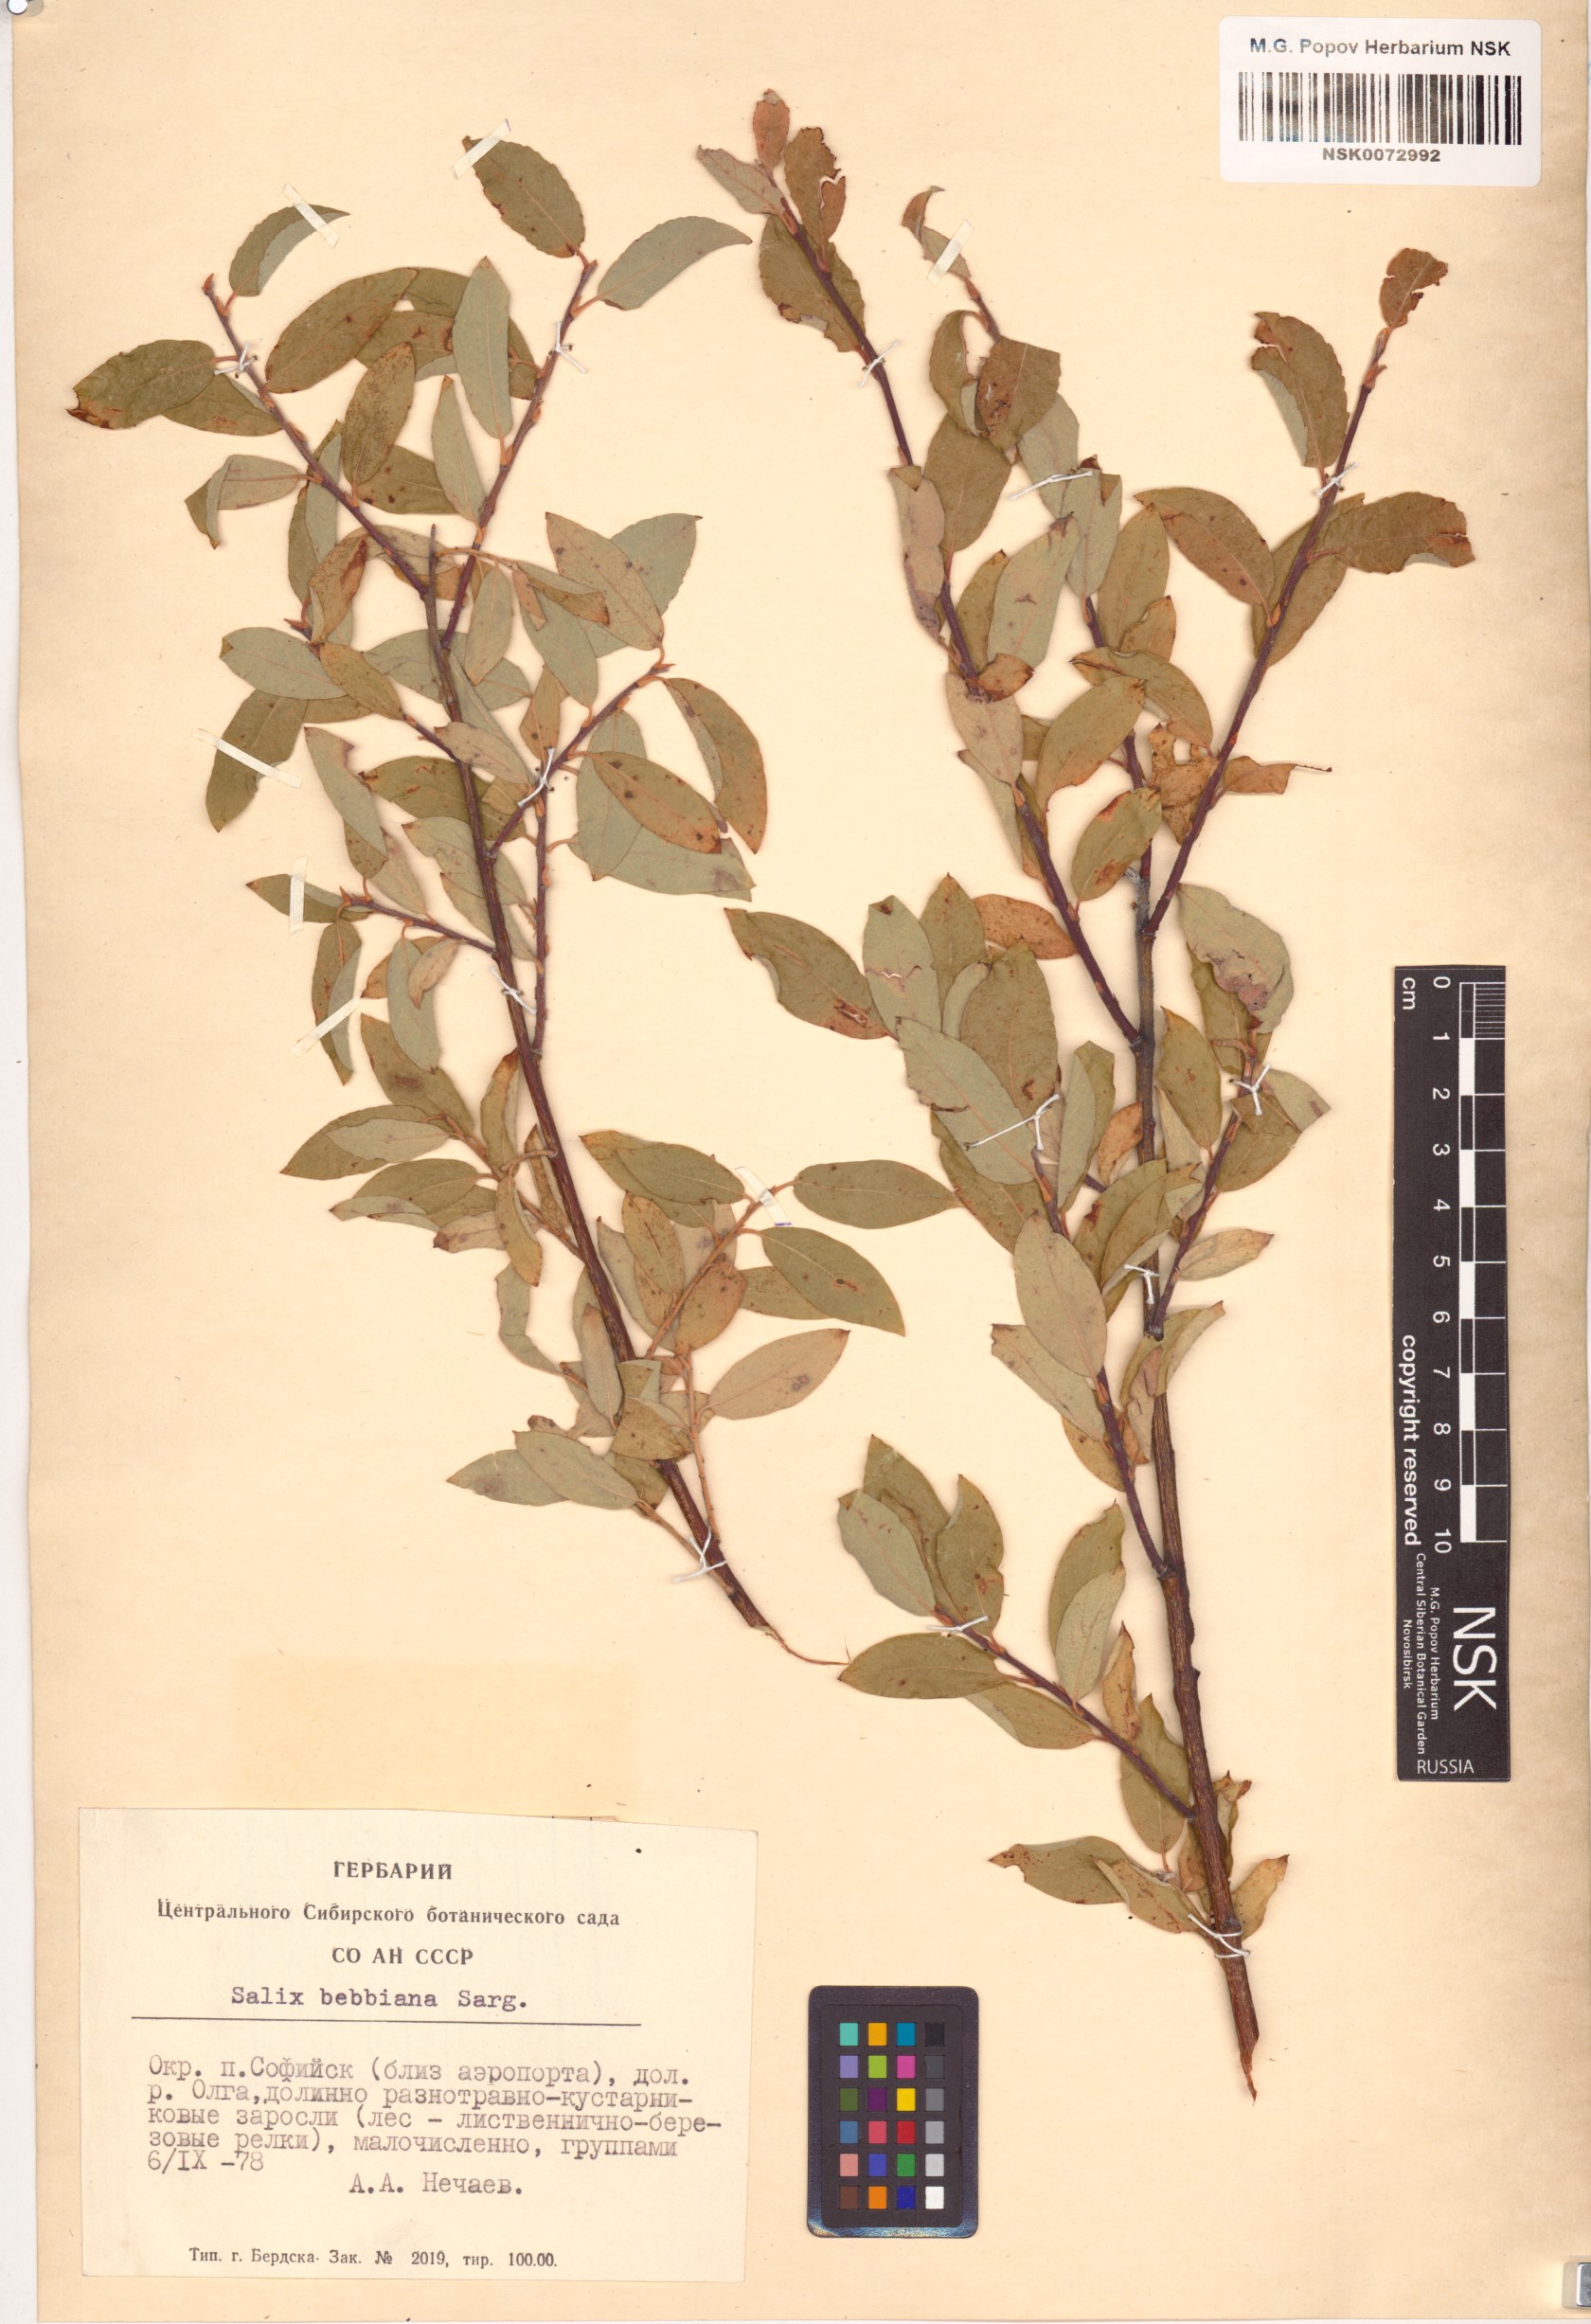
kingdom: Plantae
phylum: Tracheophyta
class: Magnoliopsida
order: Malpighiales
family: Salicaceae
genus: Salix
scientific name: Salix bebbiana
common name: Bebb's willow
